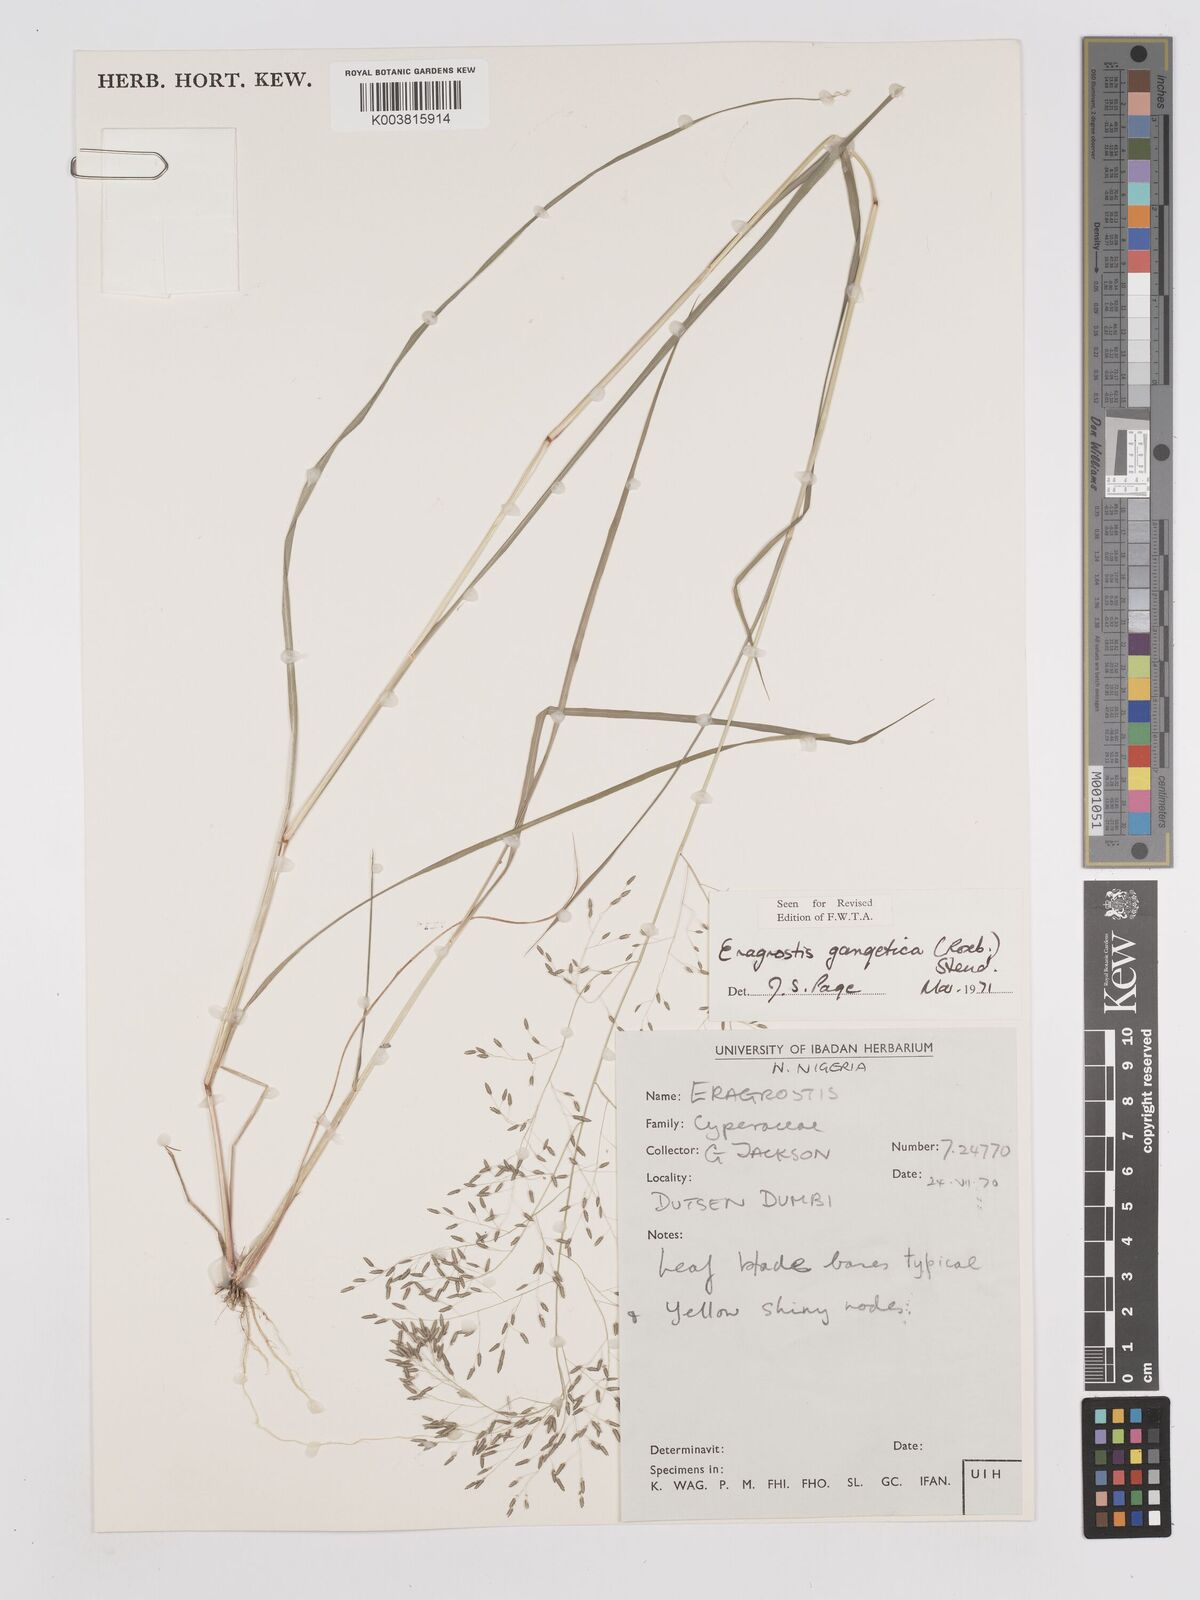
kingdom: Plantae
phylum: Tracheophyta
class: Liliopsida
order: Poales
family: Poaceae
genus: Eragrostis
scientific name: Eragrostis gangetica
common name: Slimflower lovegrass
